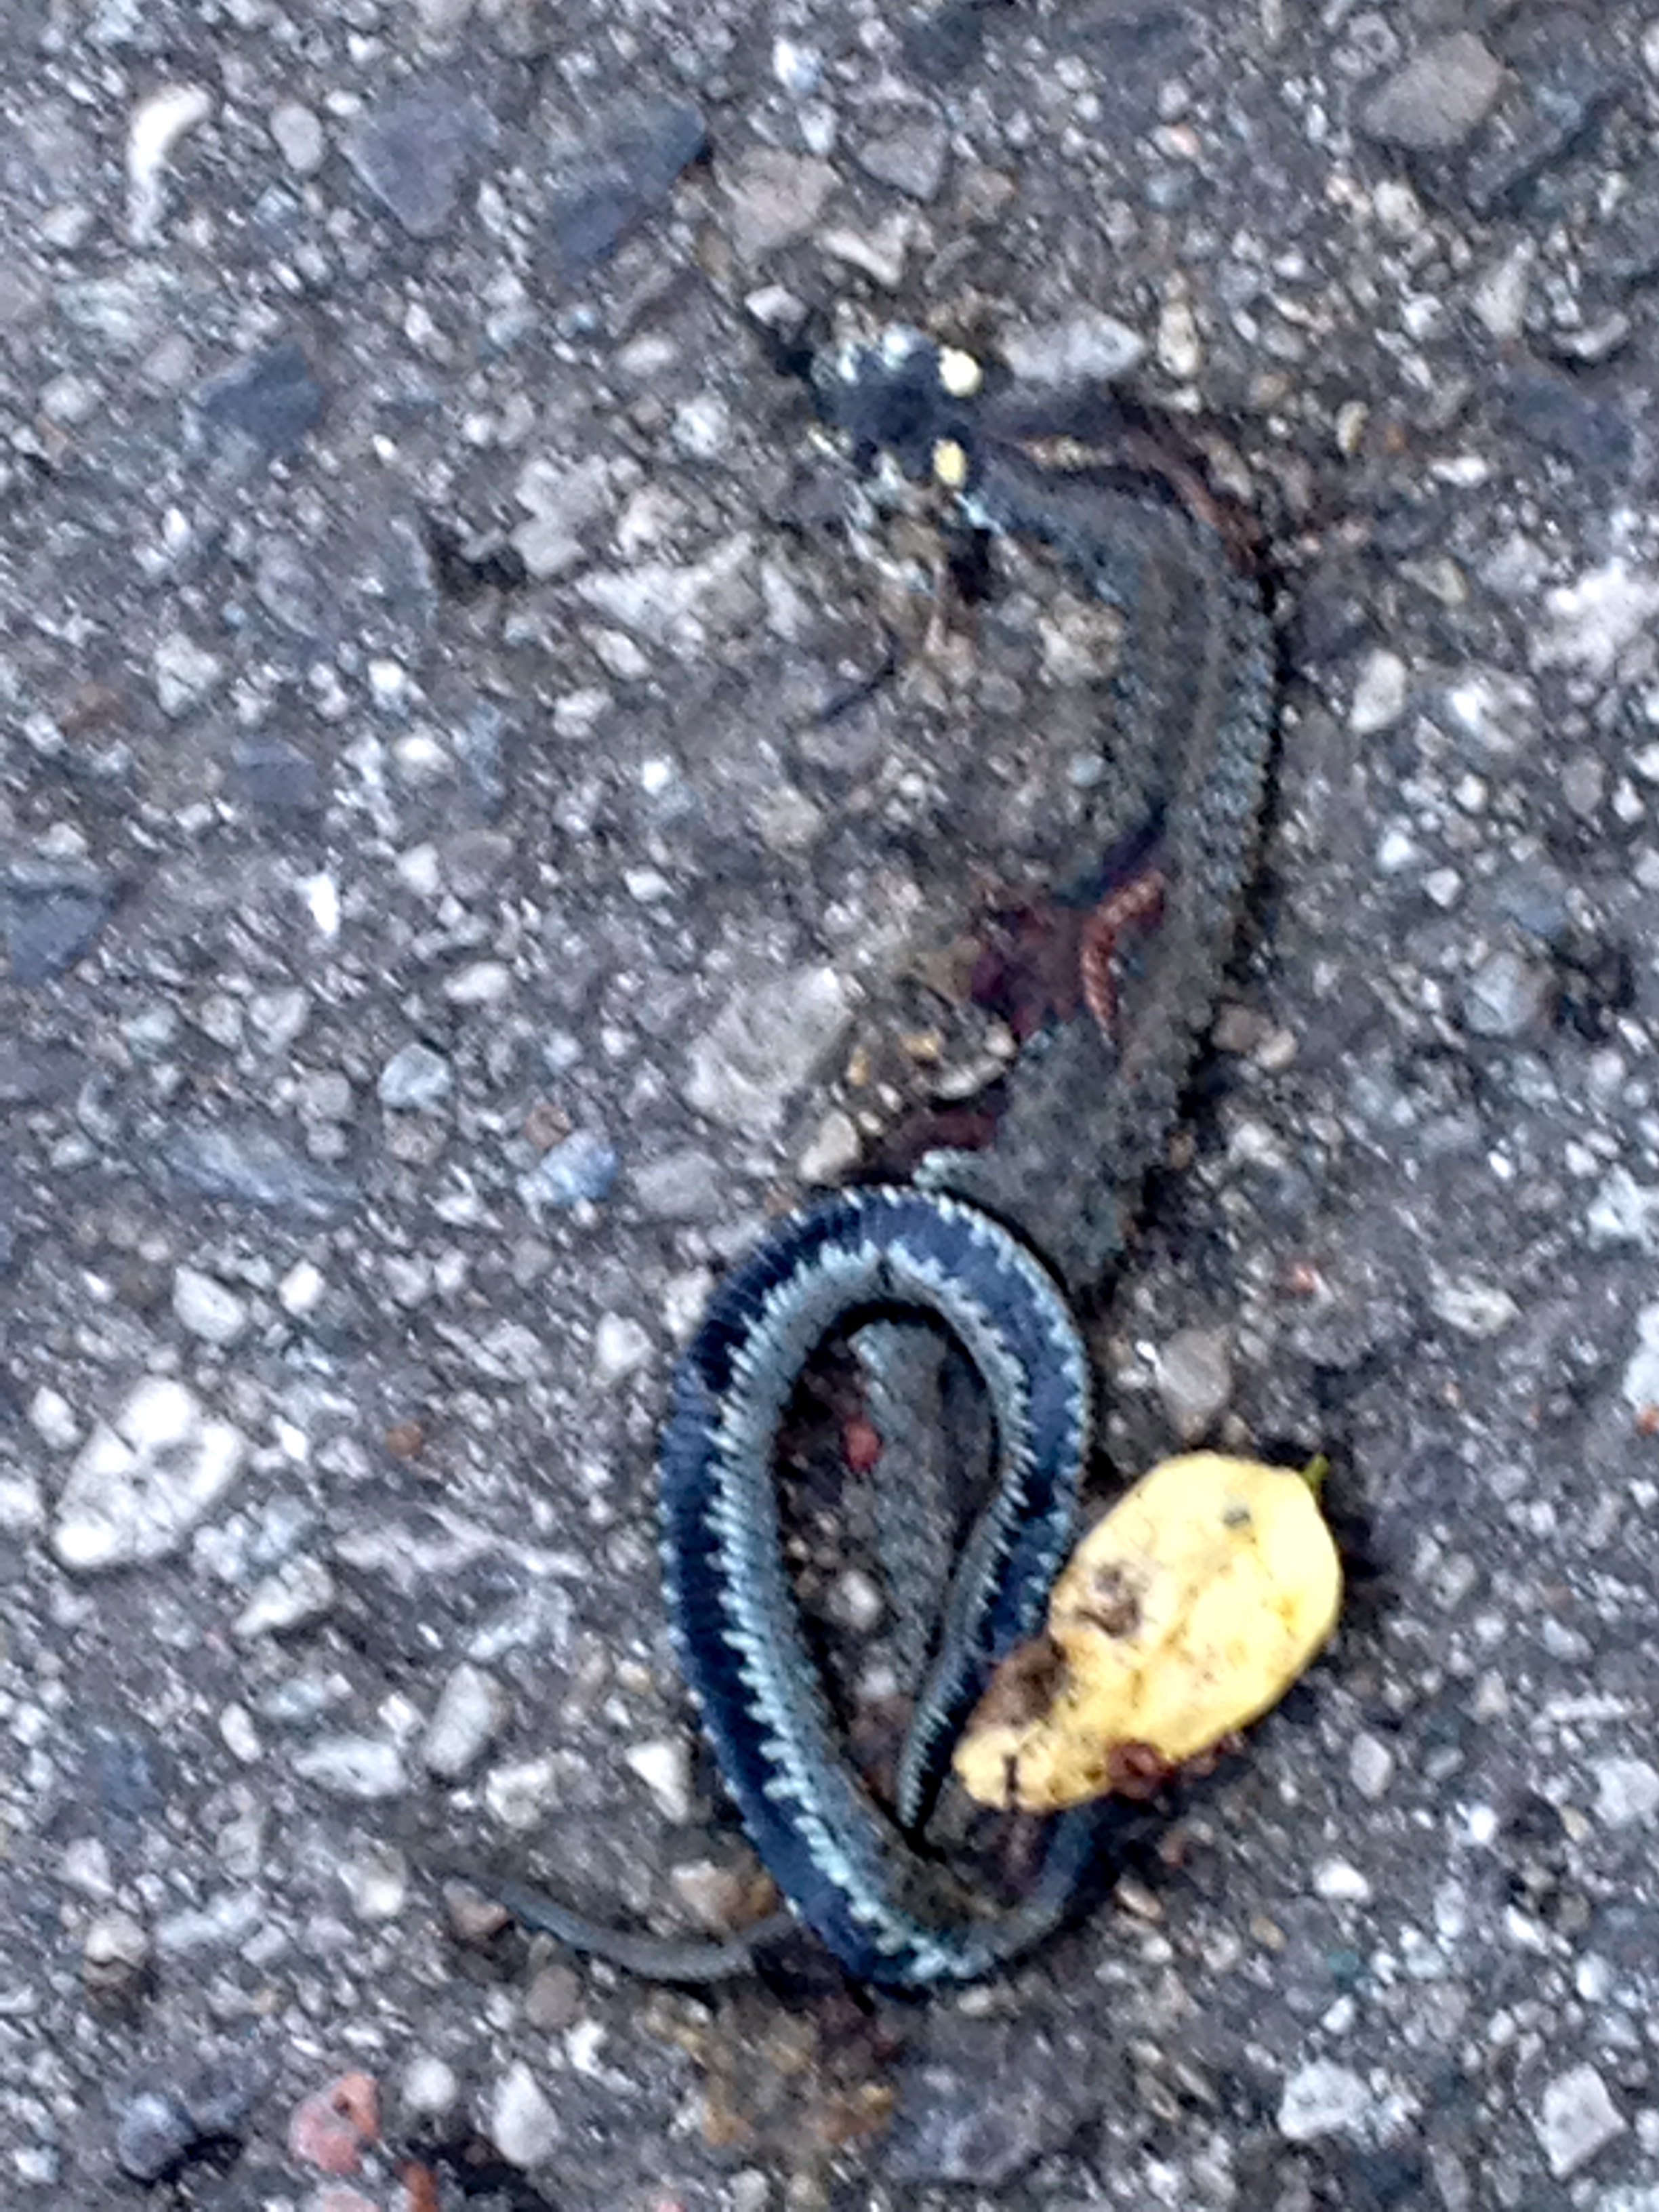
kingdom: Animalia
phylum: Chordata
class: Squamata
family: Colubridae
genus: Natrix
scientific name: Natrix natrix
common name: Grass snake
